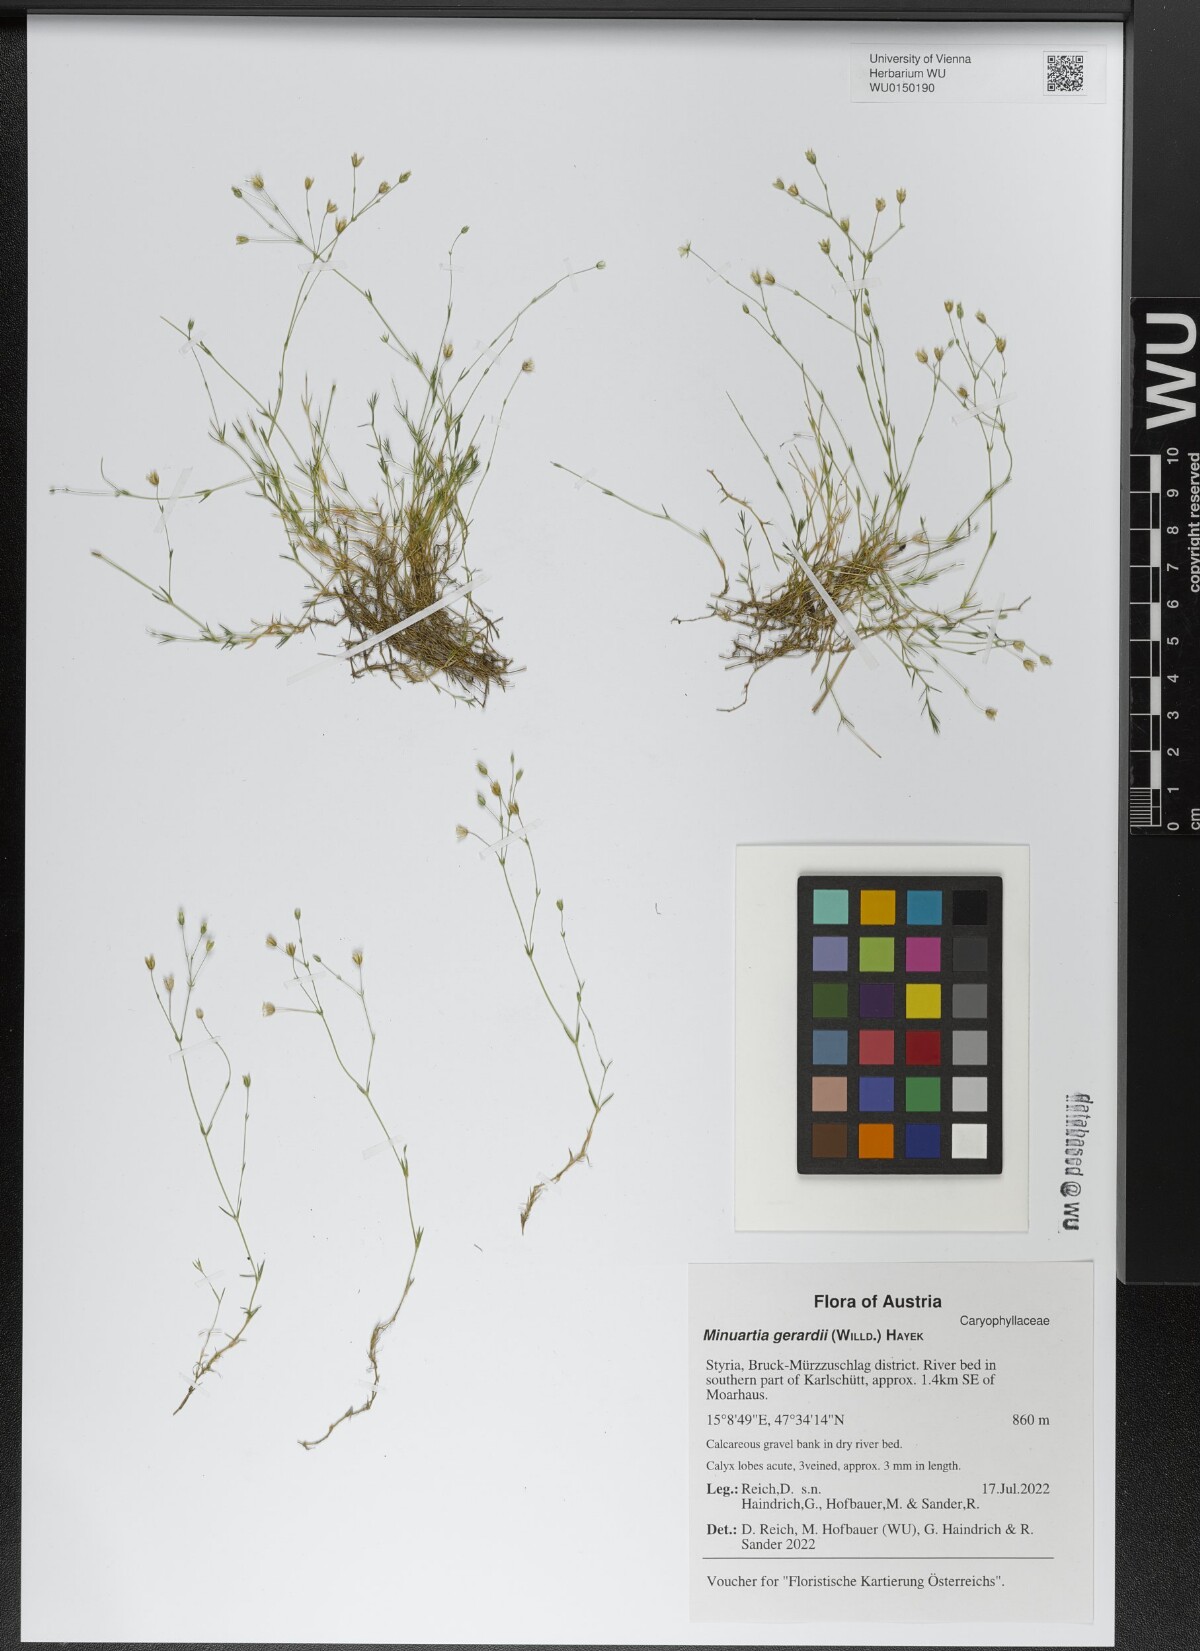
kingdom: Plantae
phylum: Tracheophyta
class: Magnoliopsida
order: Caryophyllales
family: Caryophyllaceae
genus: Sabulina
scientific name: Sabulina verna
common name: Spring sandwort
